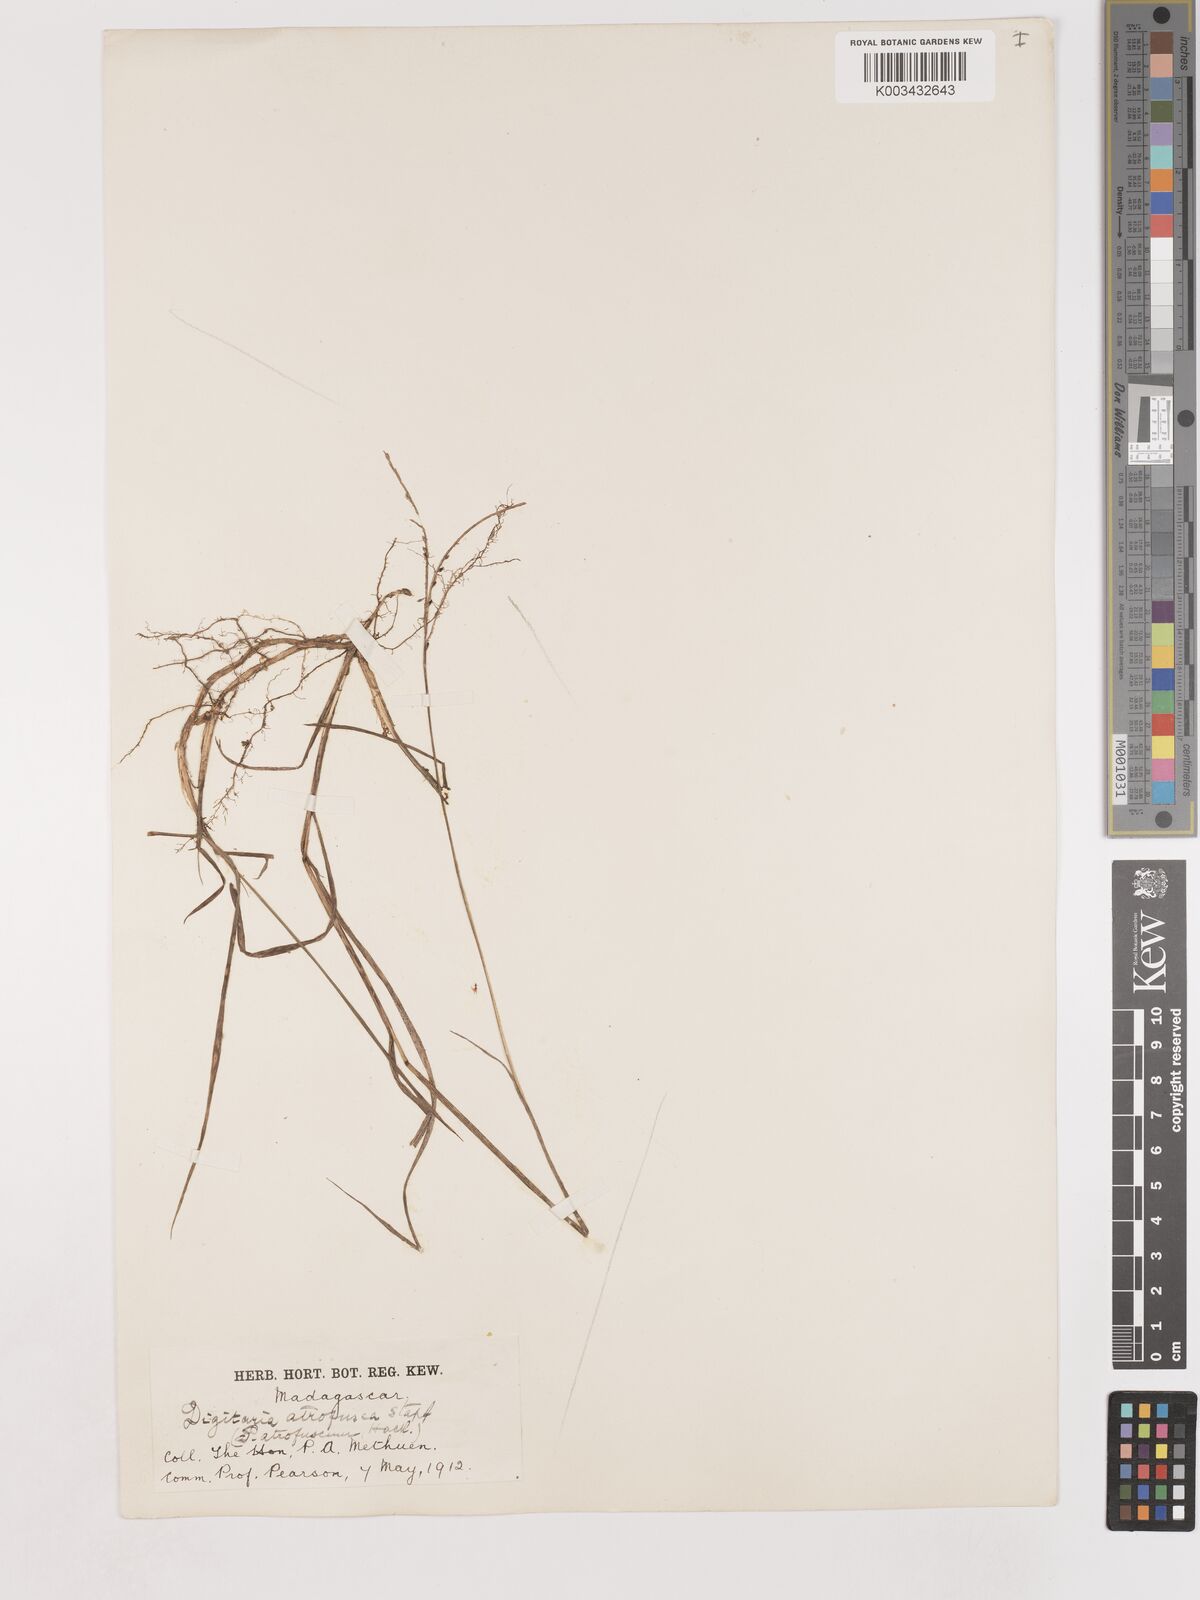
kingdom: Plantae
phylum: Tracheophyta
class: Liliopsida
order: Poales
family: Poaceae
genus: Digitaria
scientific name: Digitaria atrofusca
